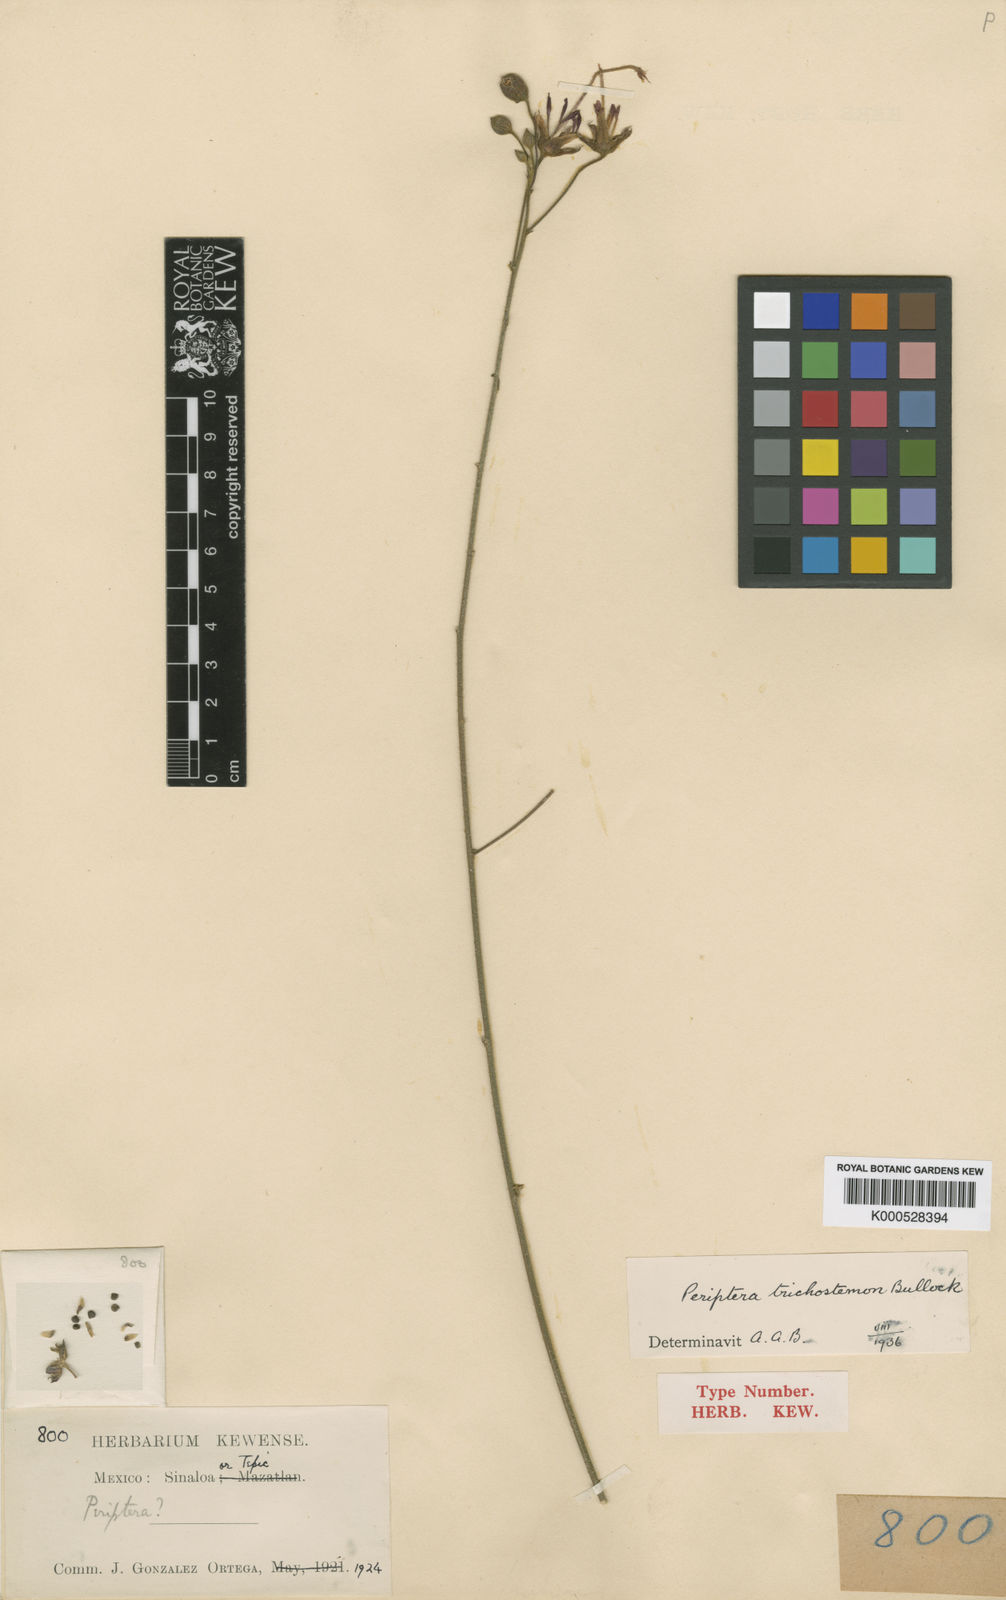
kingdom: Plantae
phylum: Tracheophyta
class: Magnoliopsida
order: Malvales
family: Malvaceae
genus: Periptera
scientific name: Periptera trichostemon
